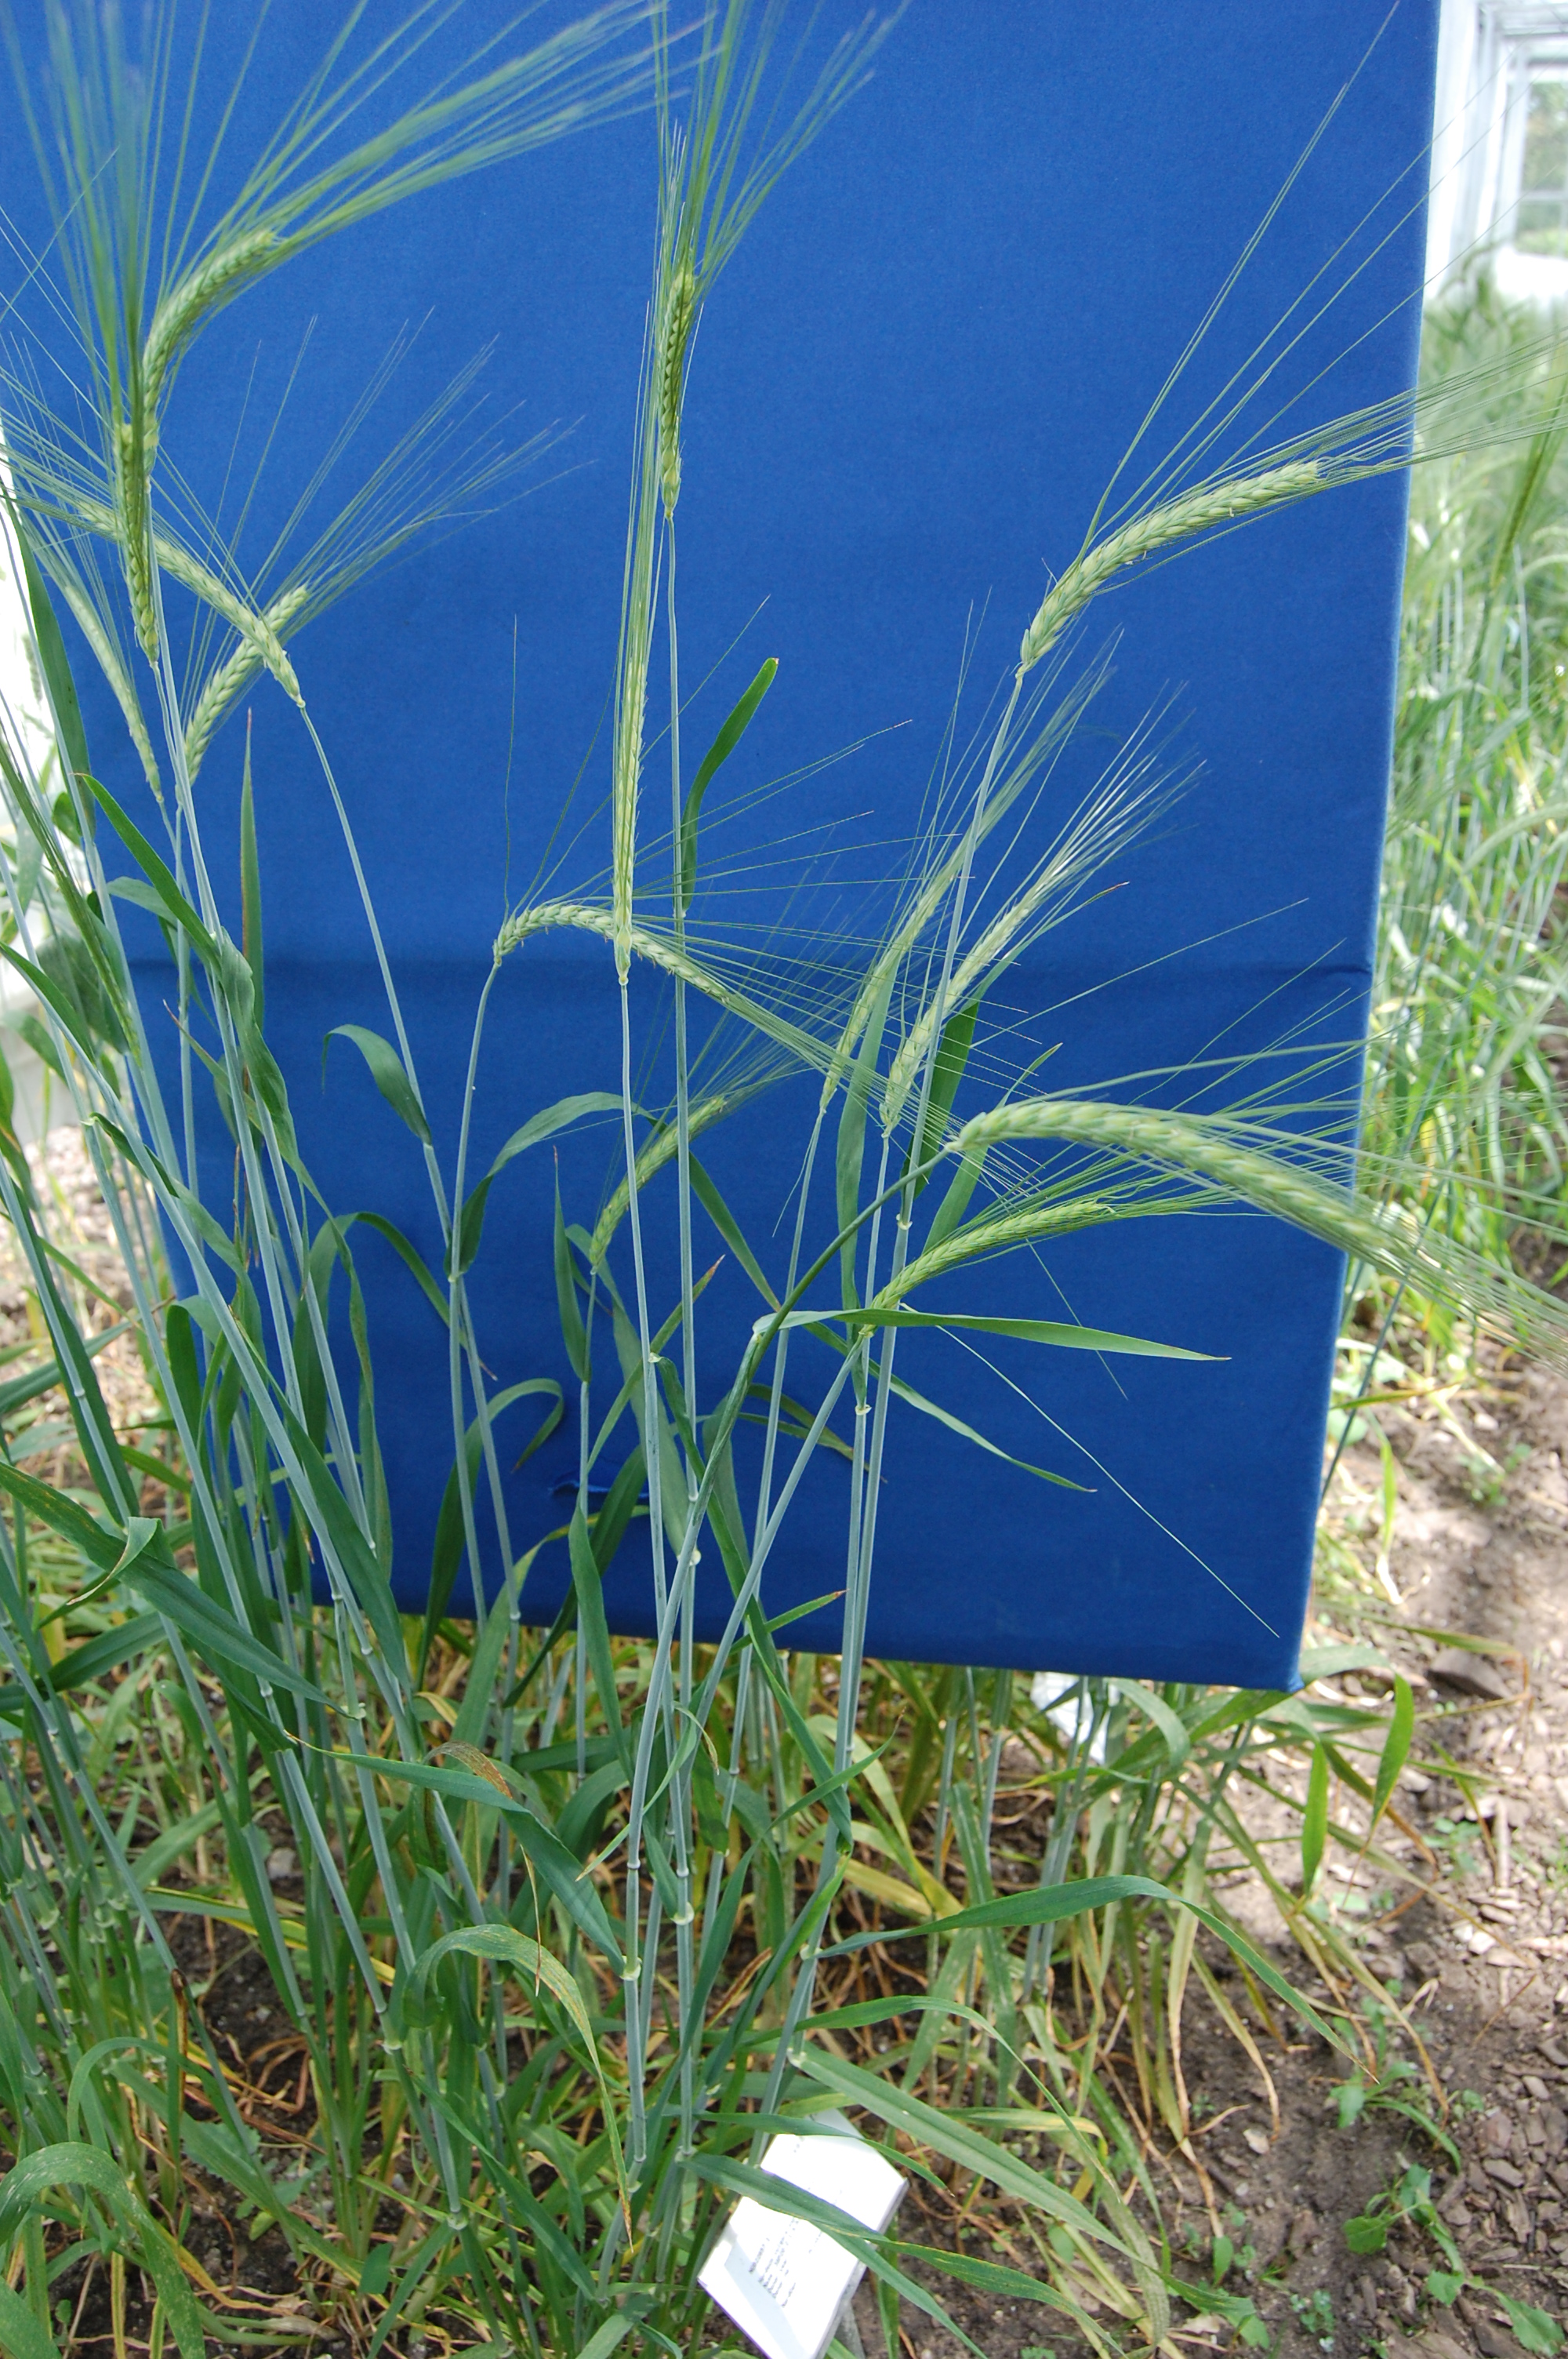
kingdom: Plantae
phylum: Tracheophyta
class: Liliopsida
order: Poales
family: Poaceae
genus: Hordeum
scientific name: Hordeum vulgare
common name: Common barley
